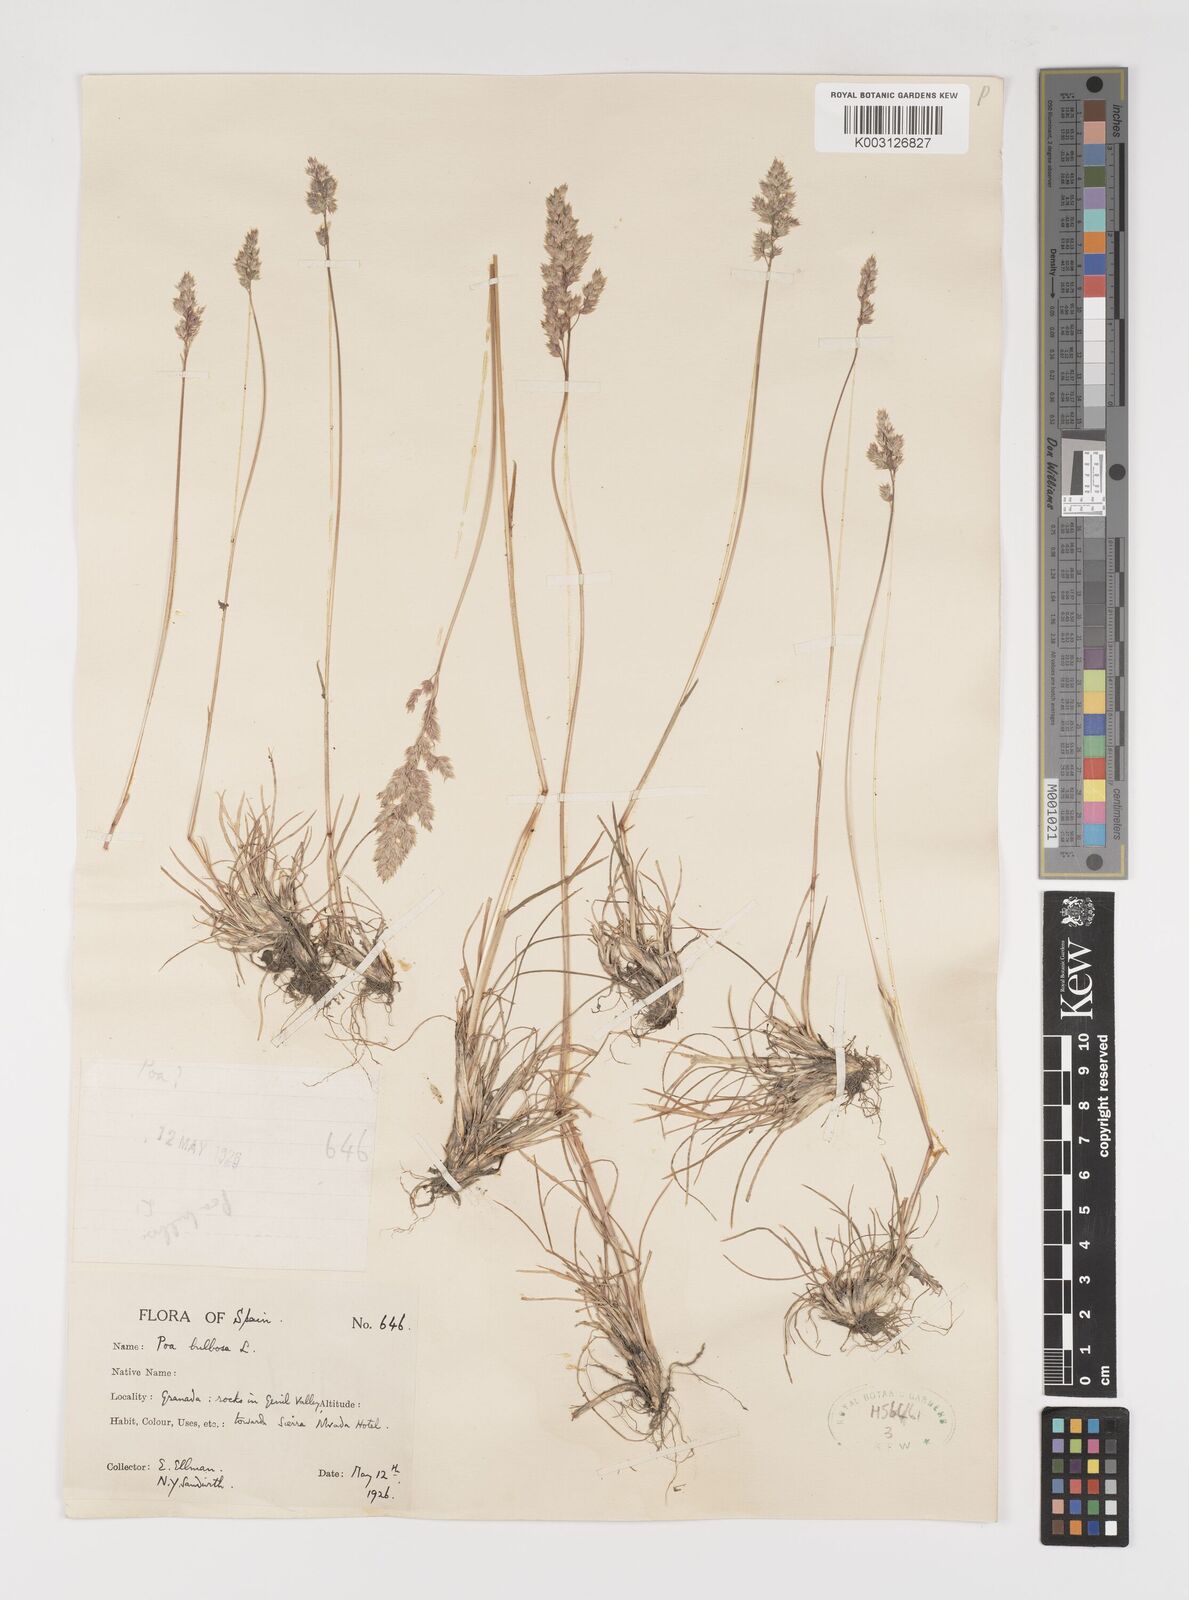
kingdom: Plantae
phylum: Tracheophyta
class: Liliopsida
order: Poales
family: Poaceae
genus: Poa
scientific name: Poa bulbosa
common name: Bulbous bluegrass
